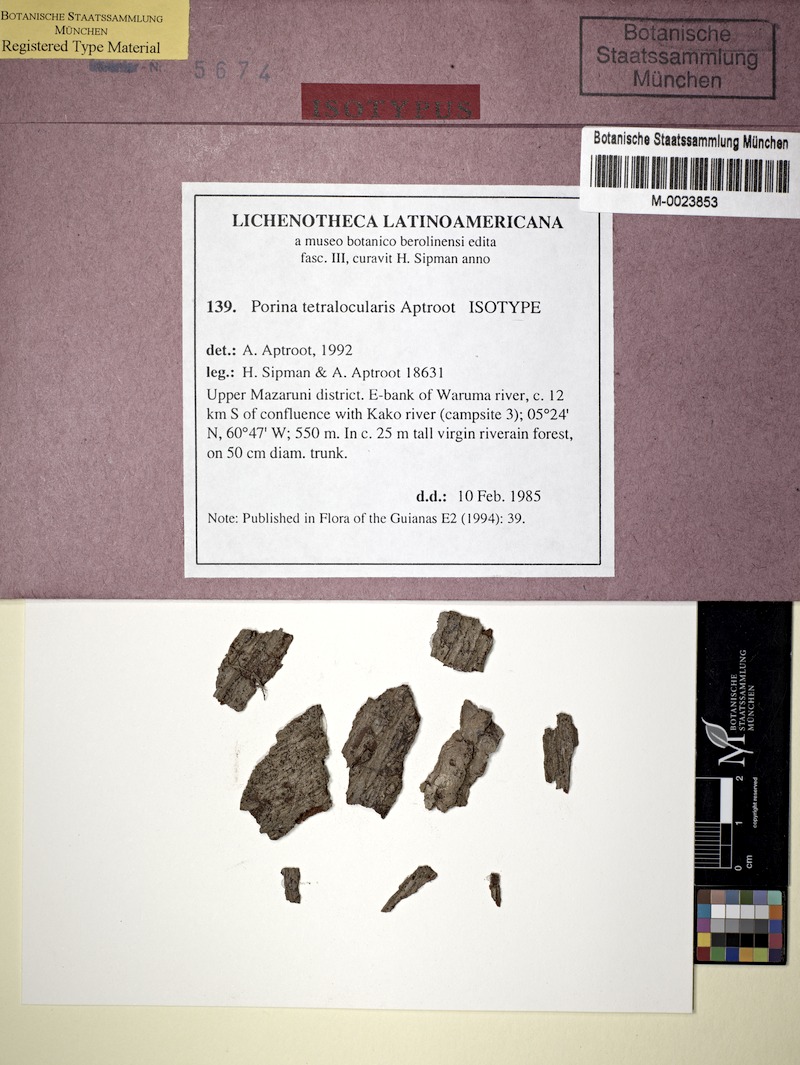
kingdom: Fungi
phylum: Ascomycota
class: Lecanoromycetes
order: Pertusariales
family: Pertusariaceae
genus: Porina
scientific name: Porina tetralocularis
